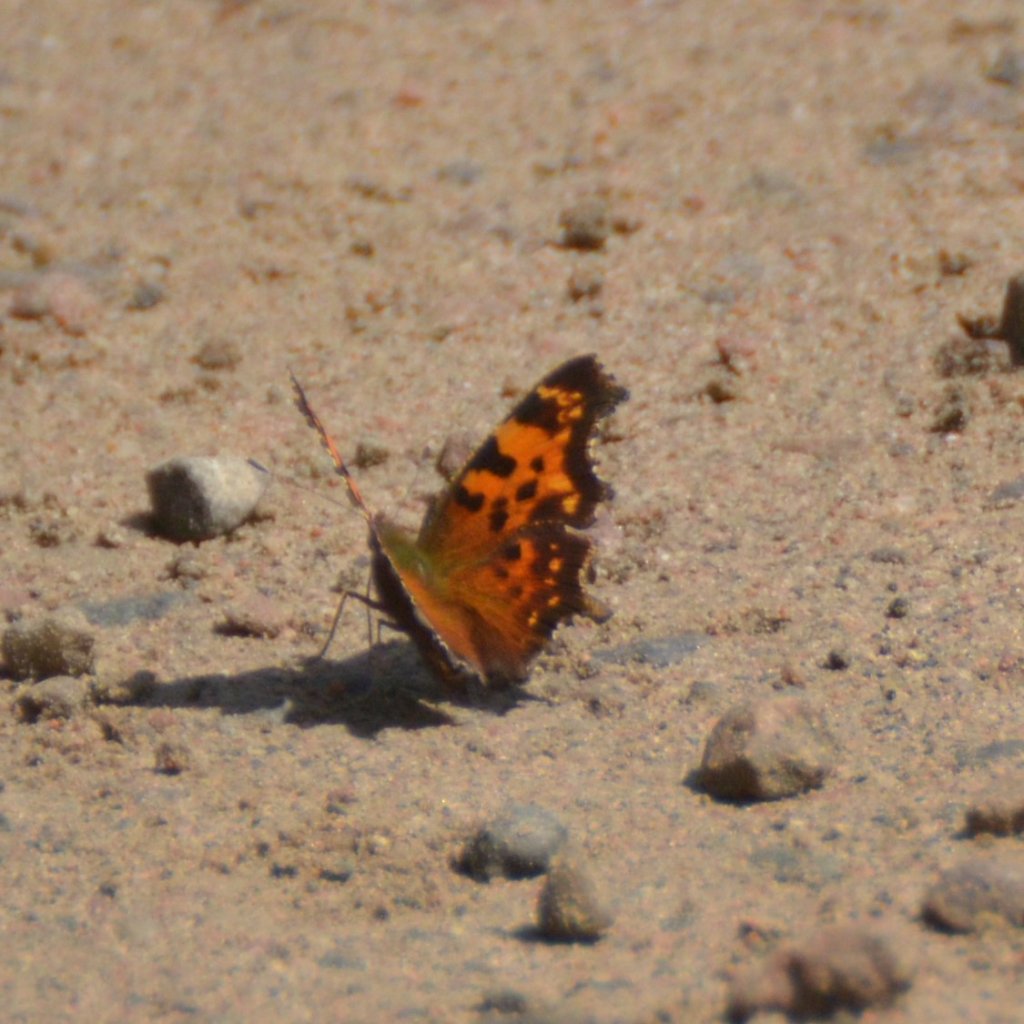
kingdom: Animalia
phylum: Arthropoda
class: Insecta
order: Lepidoptera
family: Nymphalidae
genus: Polygonia
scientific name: Polygonia faunus
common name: Green Comma
